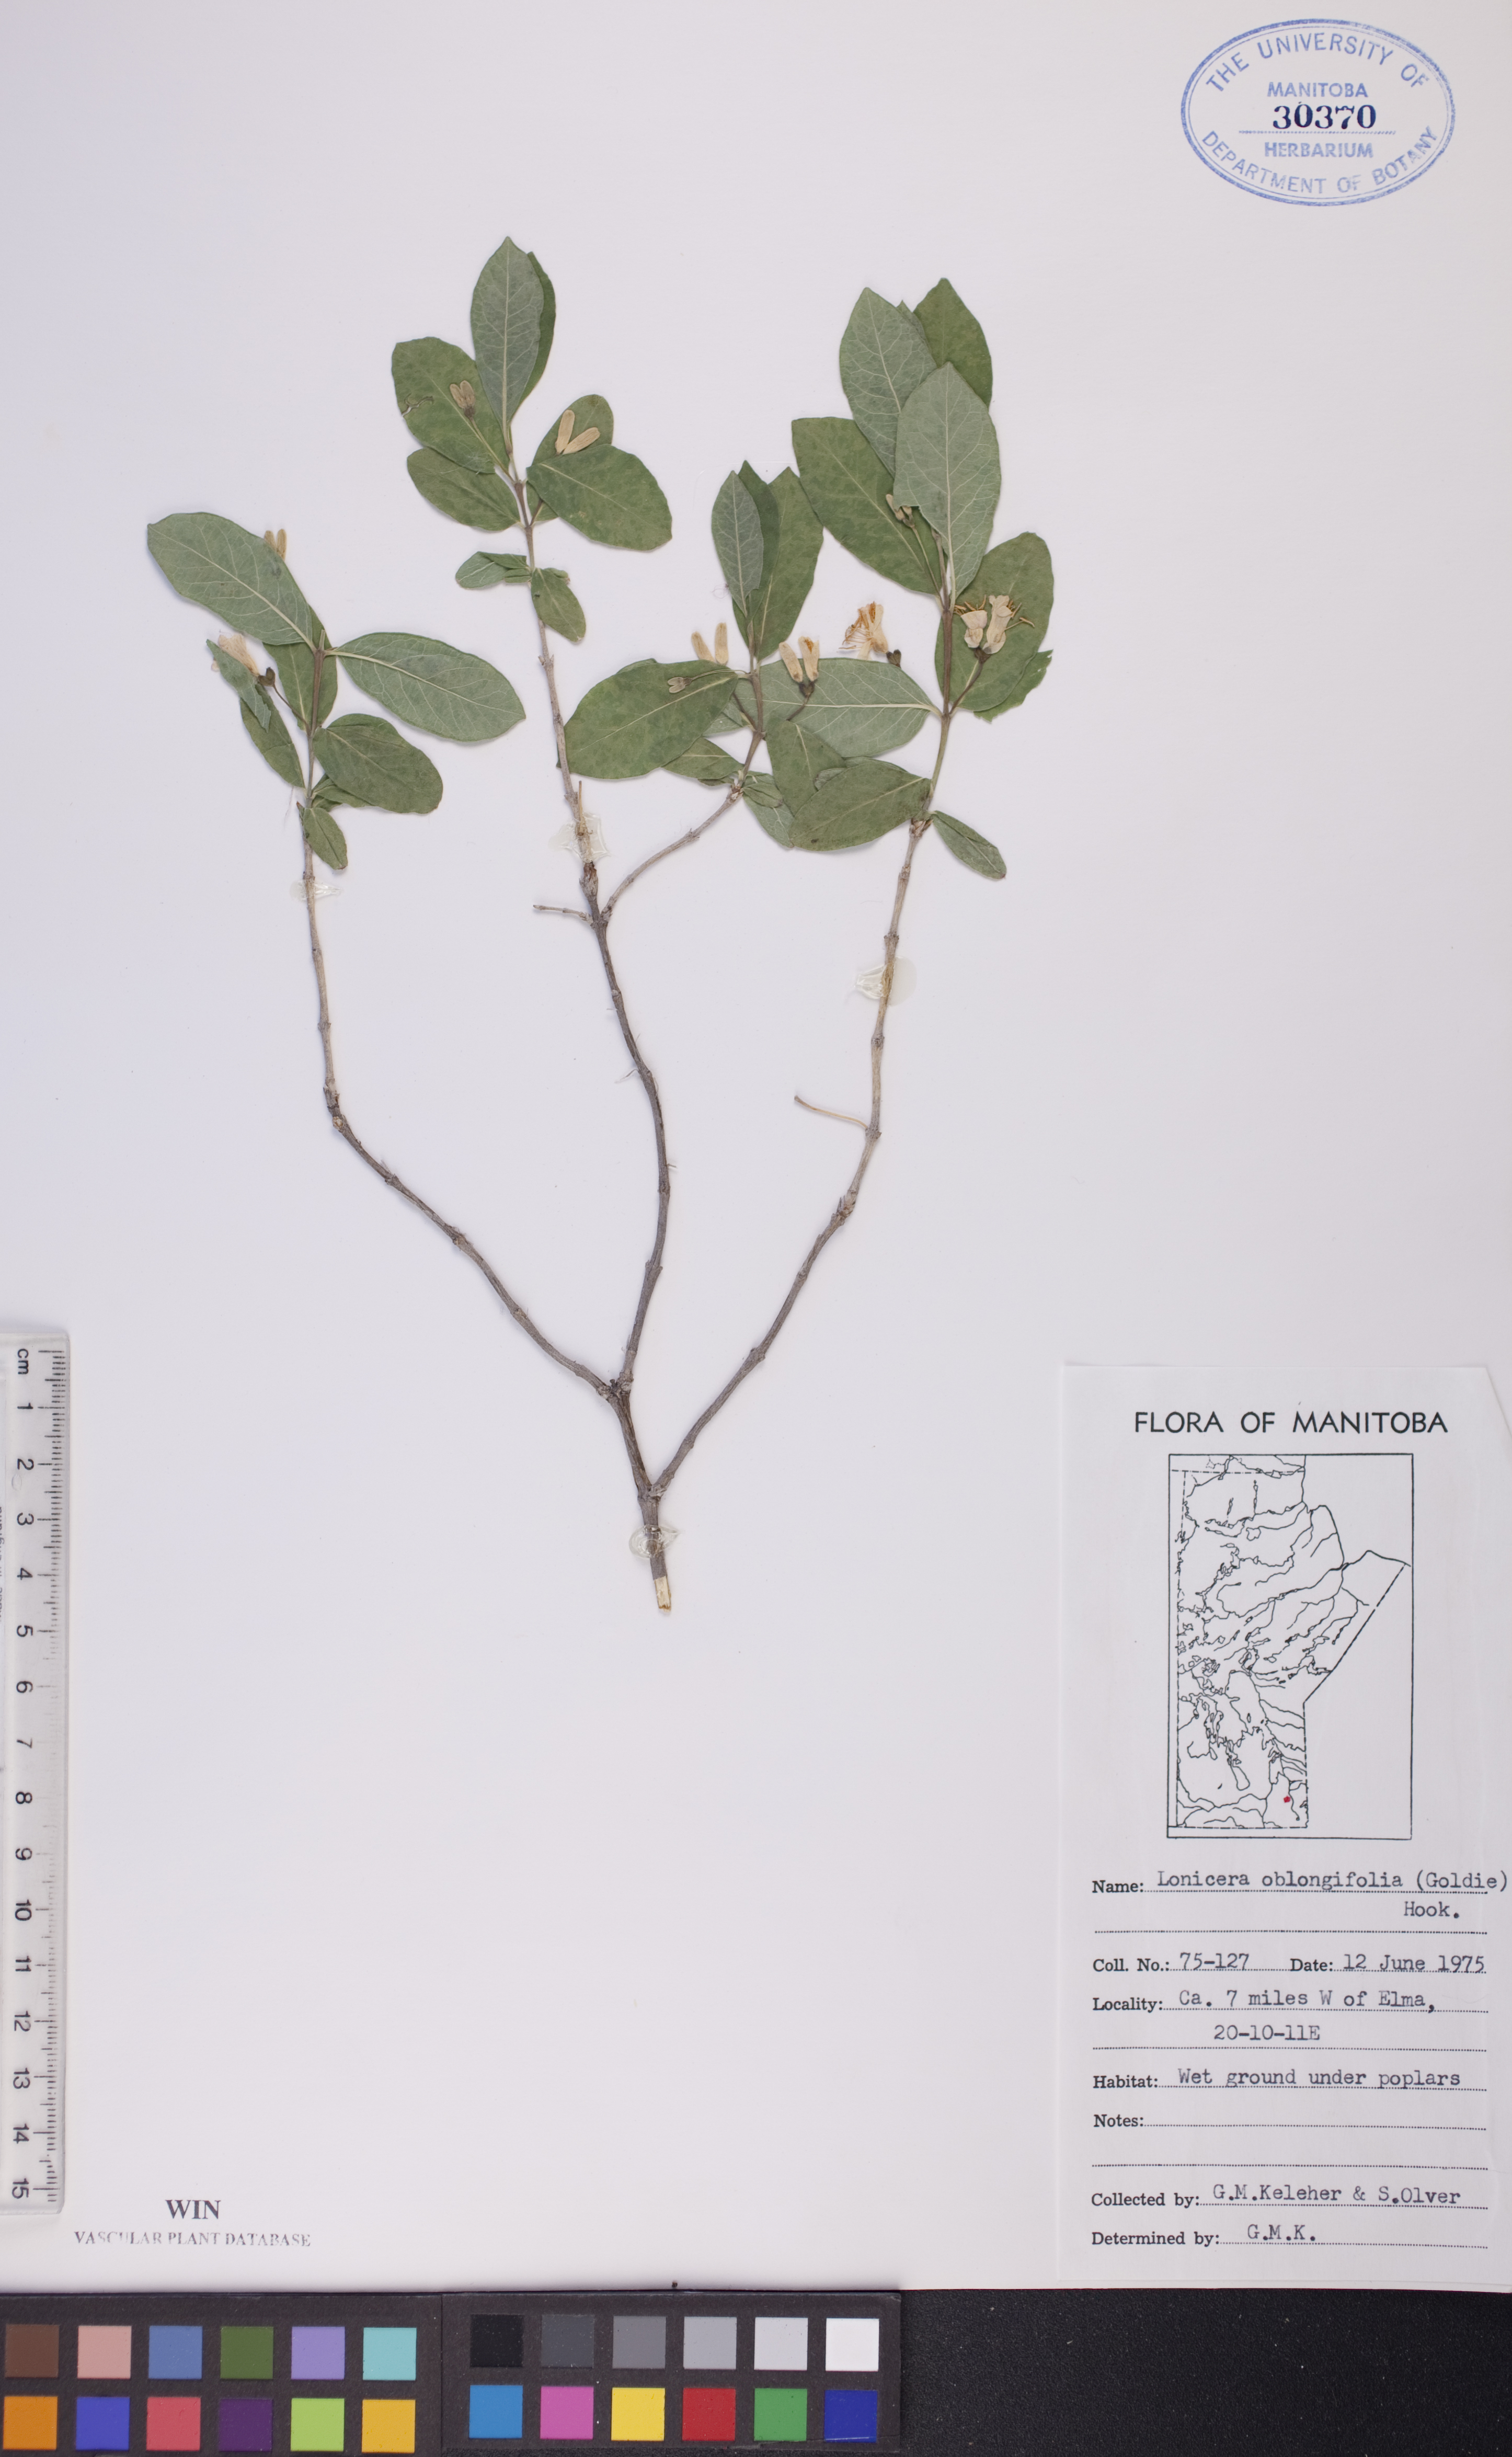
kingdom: Plantae
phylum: Tracheophyta
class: Magnoliopsida
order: Dipsacales
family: Caprifoliaceae
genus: Lonicera
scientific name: Lonicera oblongifolia
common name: Swamp fly honeysuckle
